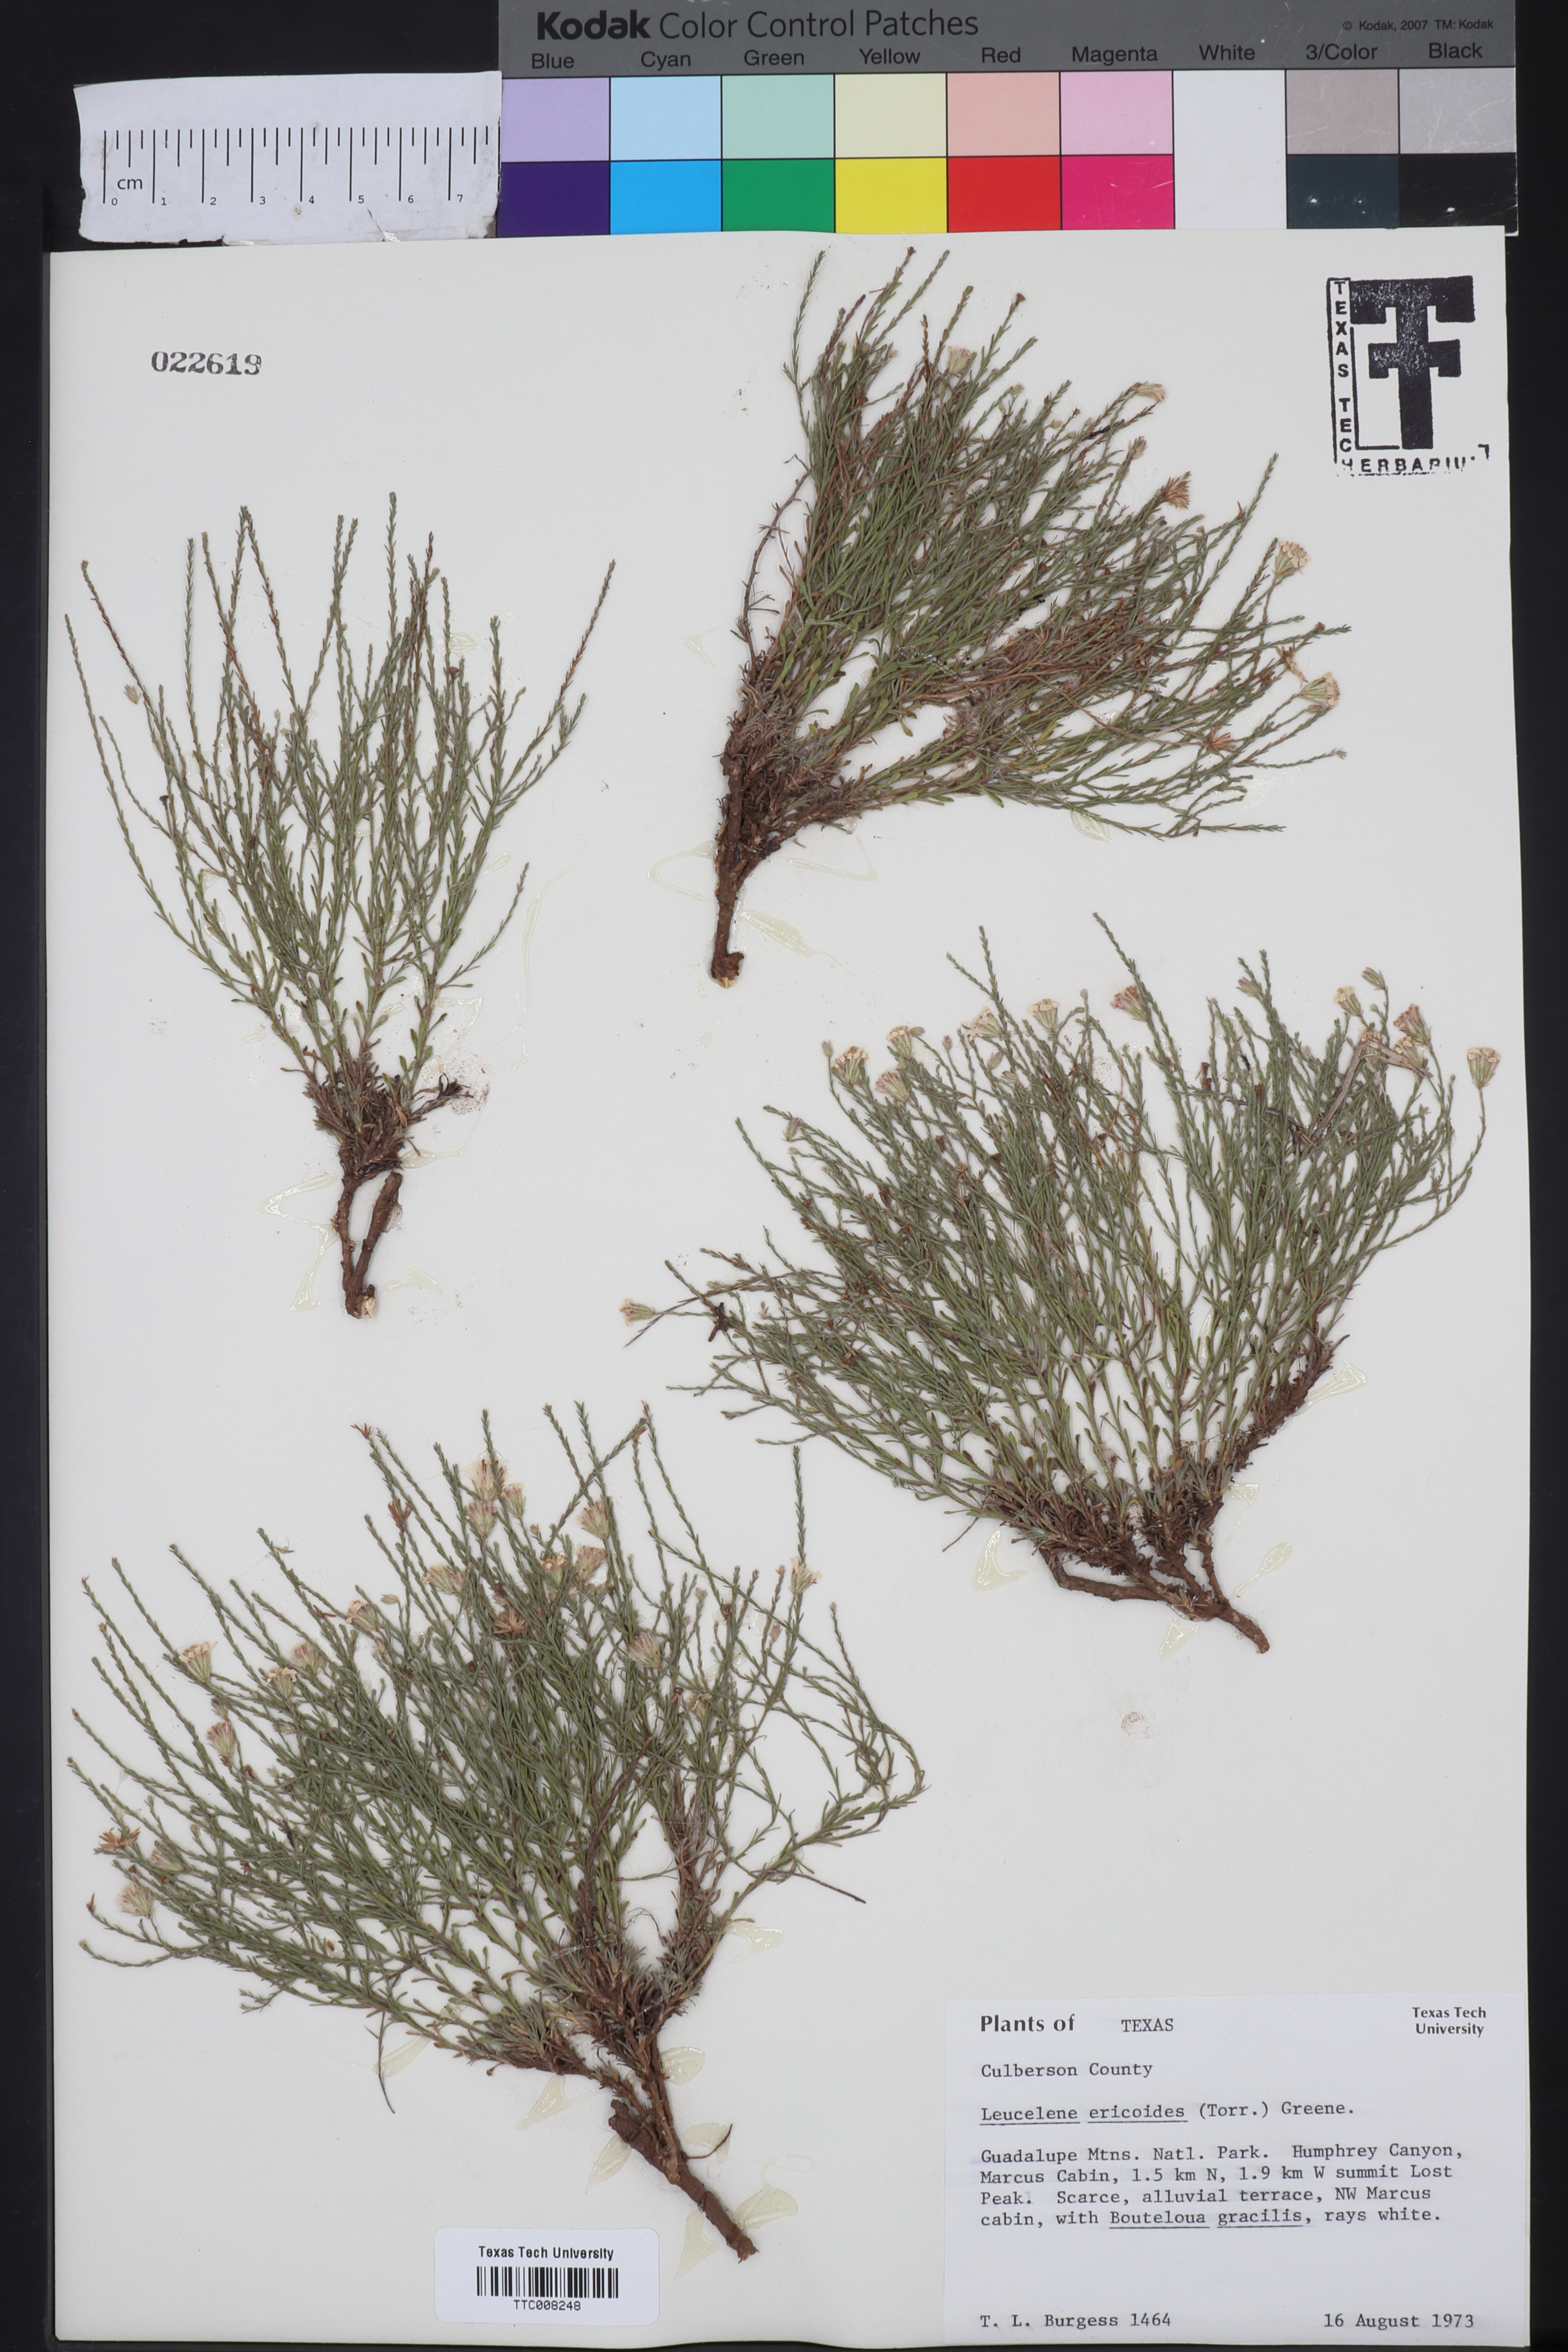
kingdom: Plantae
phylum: Tracheophyta
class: Magnoliopsida
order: Asterales
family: Asteraceae
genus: Chaetopappa
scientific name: Chaetopappa ericoides
